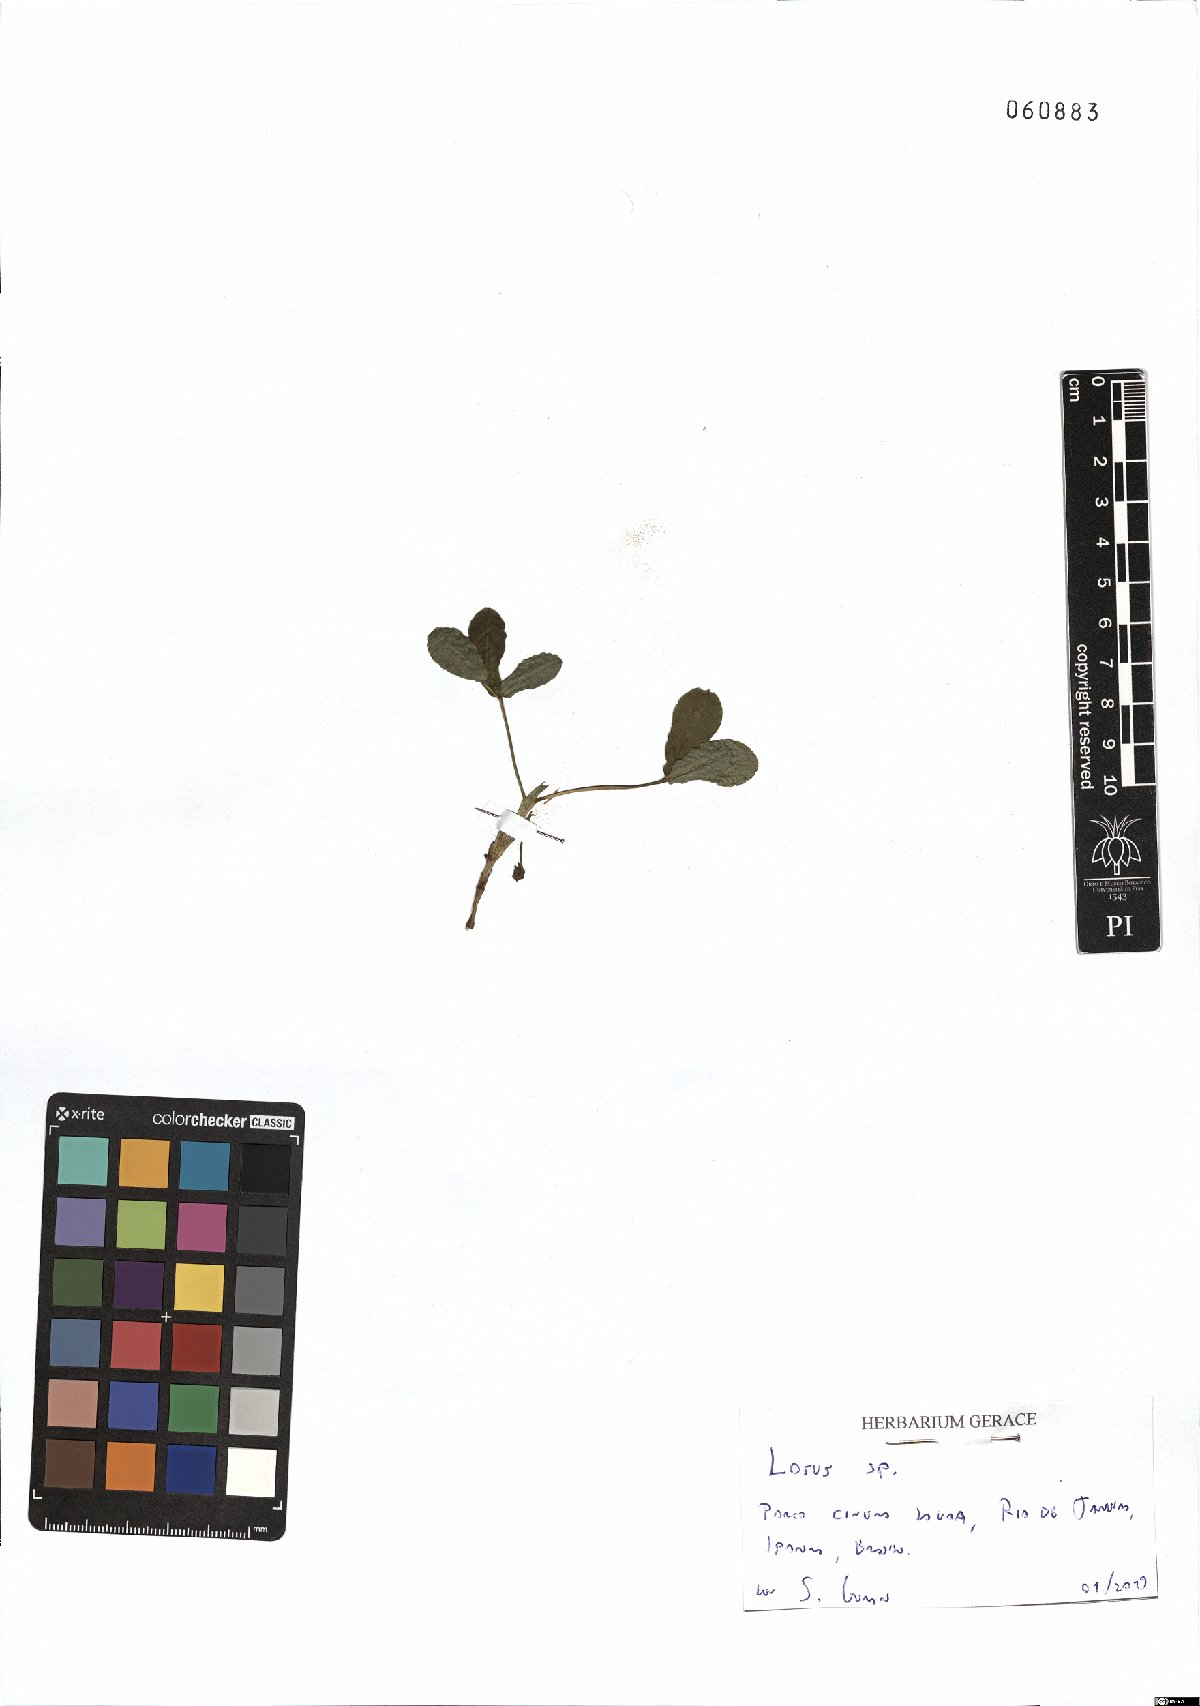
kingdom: Plantae
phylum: Tracheophyta
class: Magnoliopsida
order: Fabales
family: Fabaceae
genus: Lotus
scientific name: Lotus
